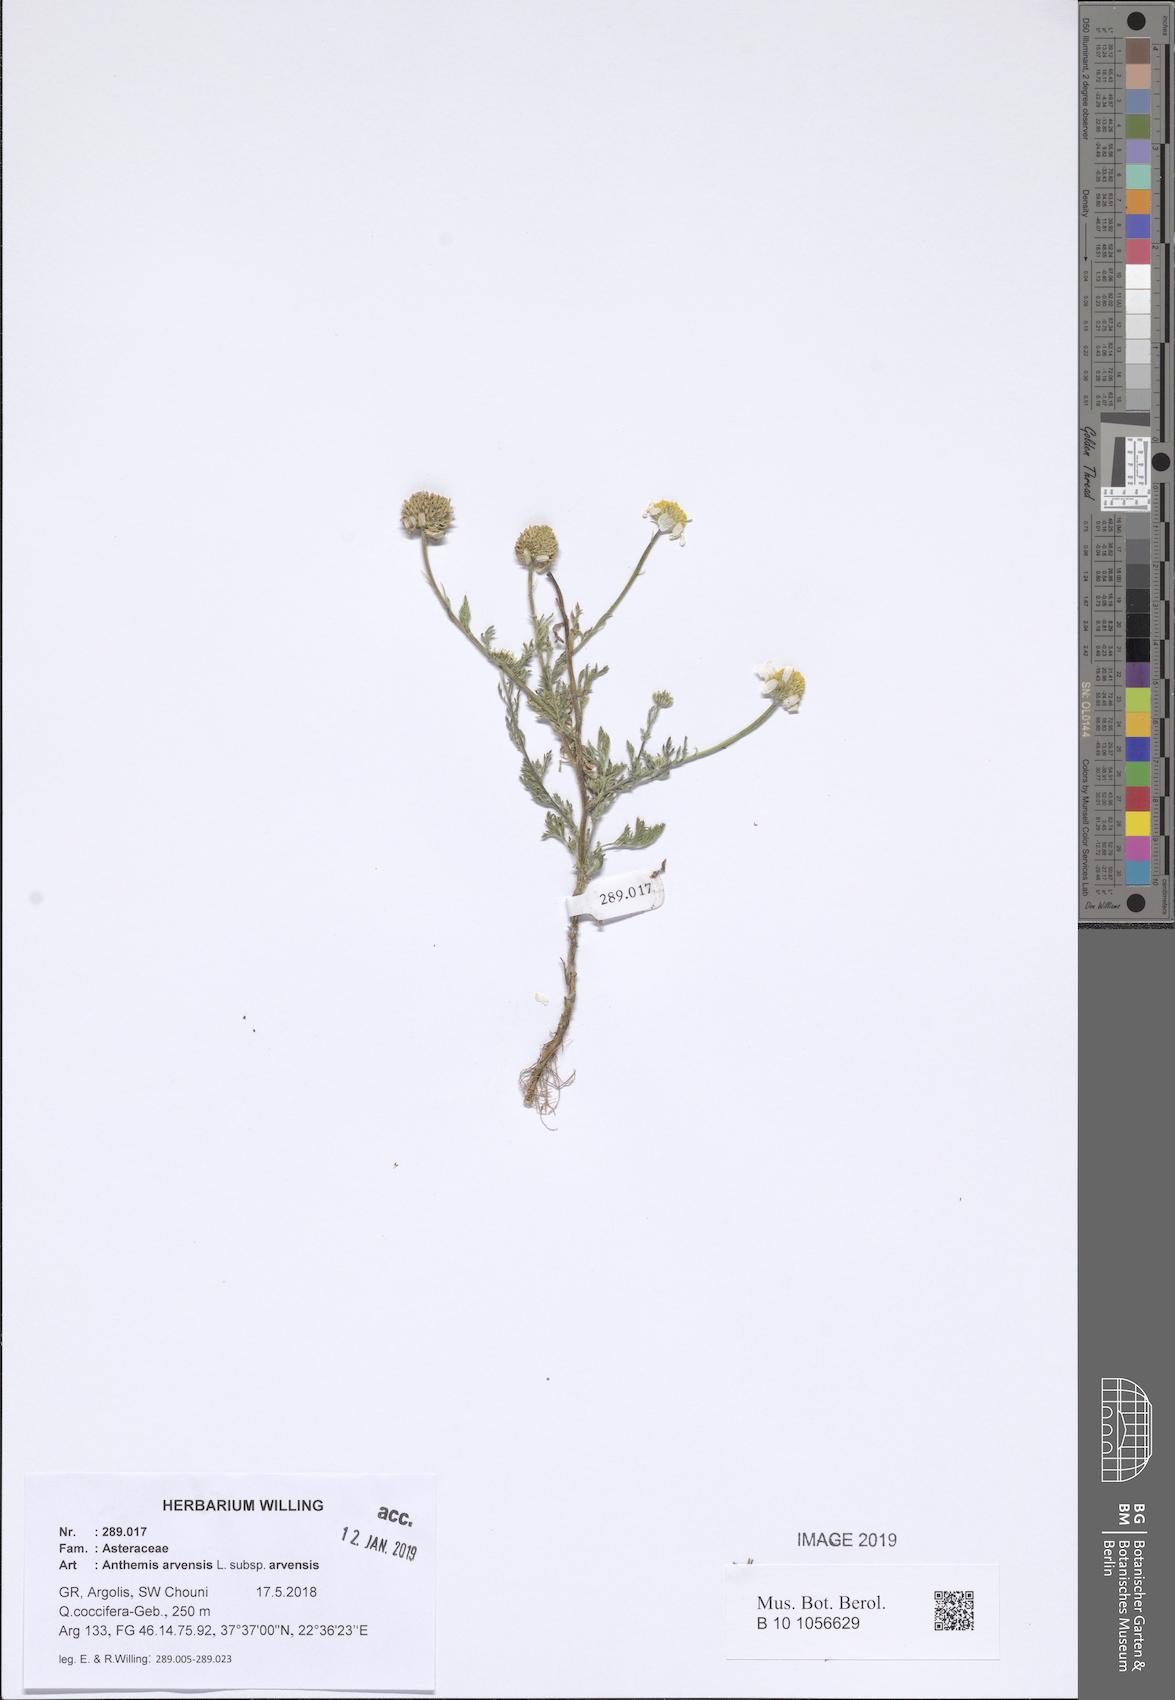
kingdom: Plantae
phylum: Tracheophyta
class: Magnoliopsida
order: Asterales
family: Asteraceae
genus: Anthemis
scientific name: Anthemis arvensis
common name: Corn chamomile
